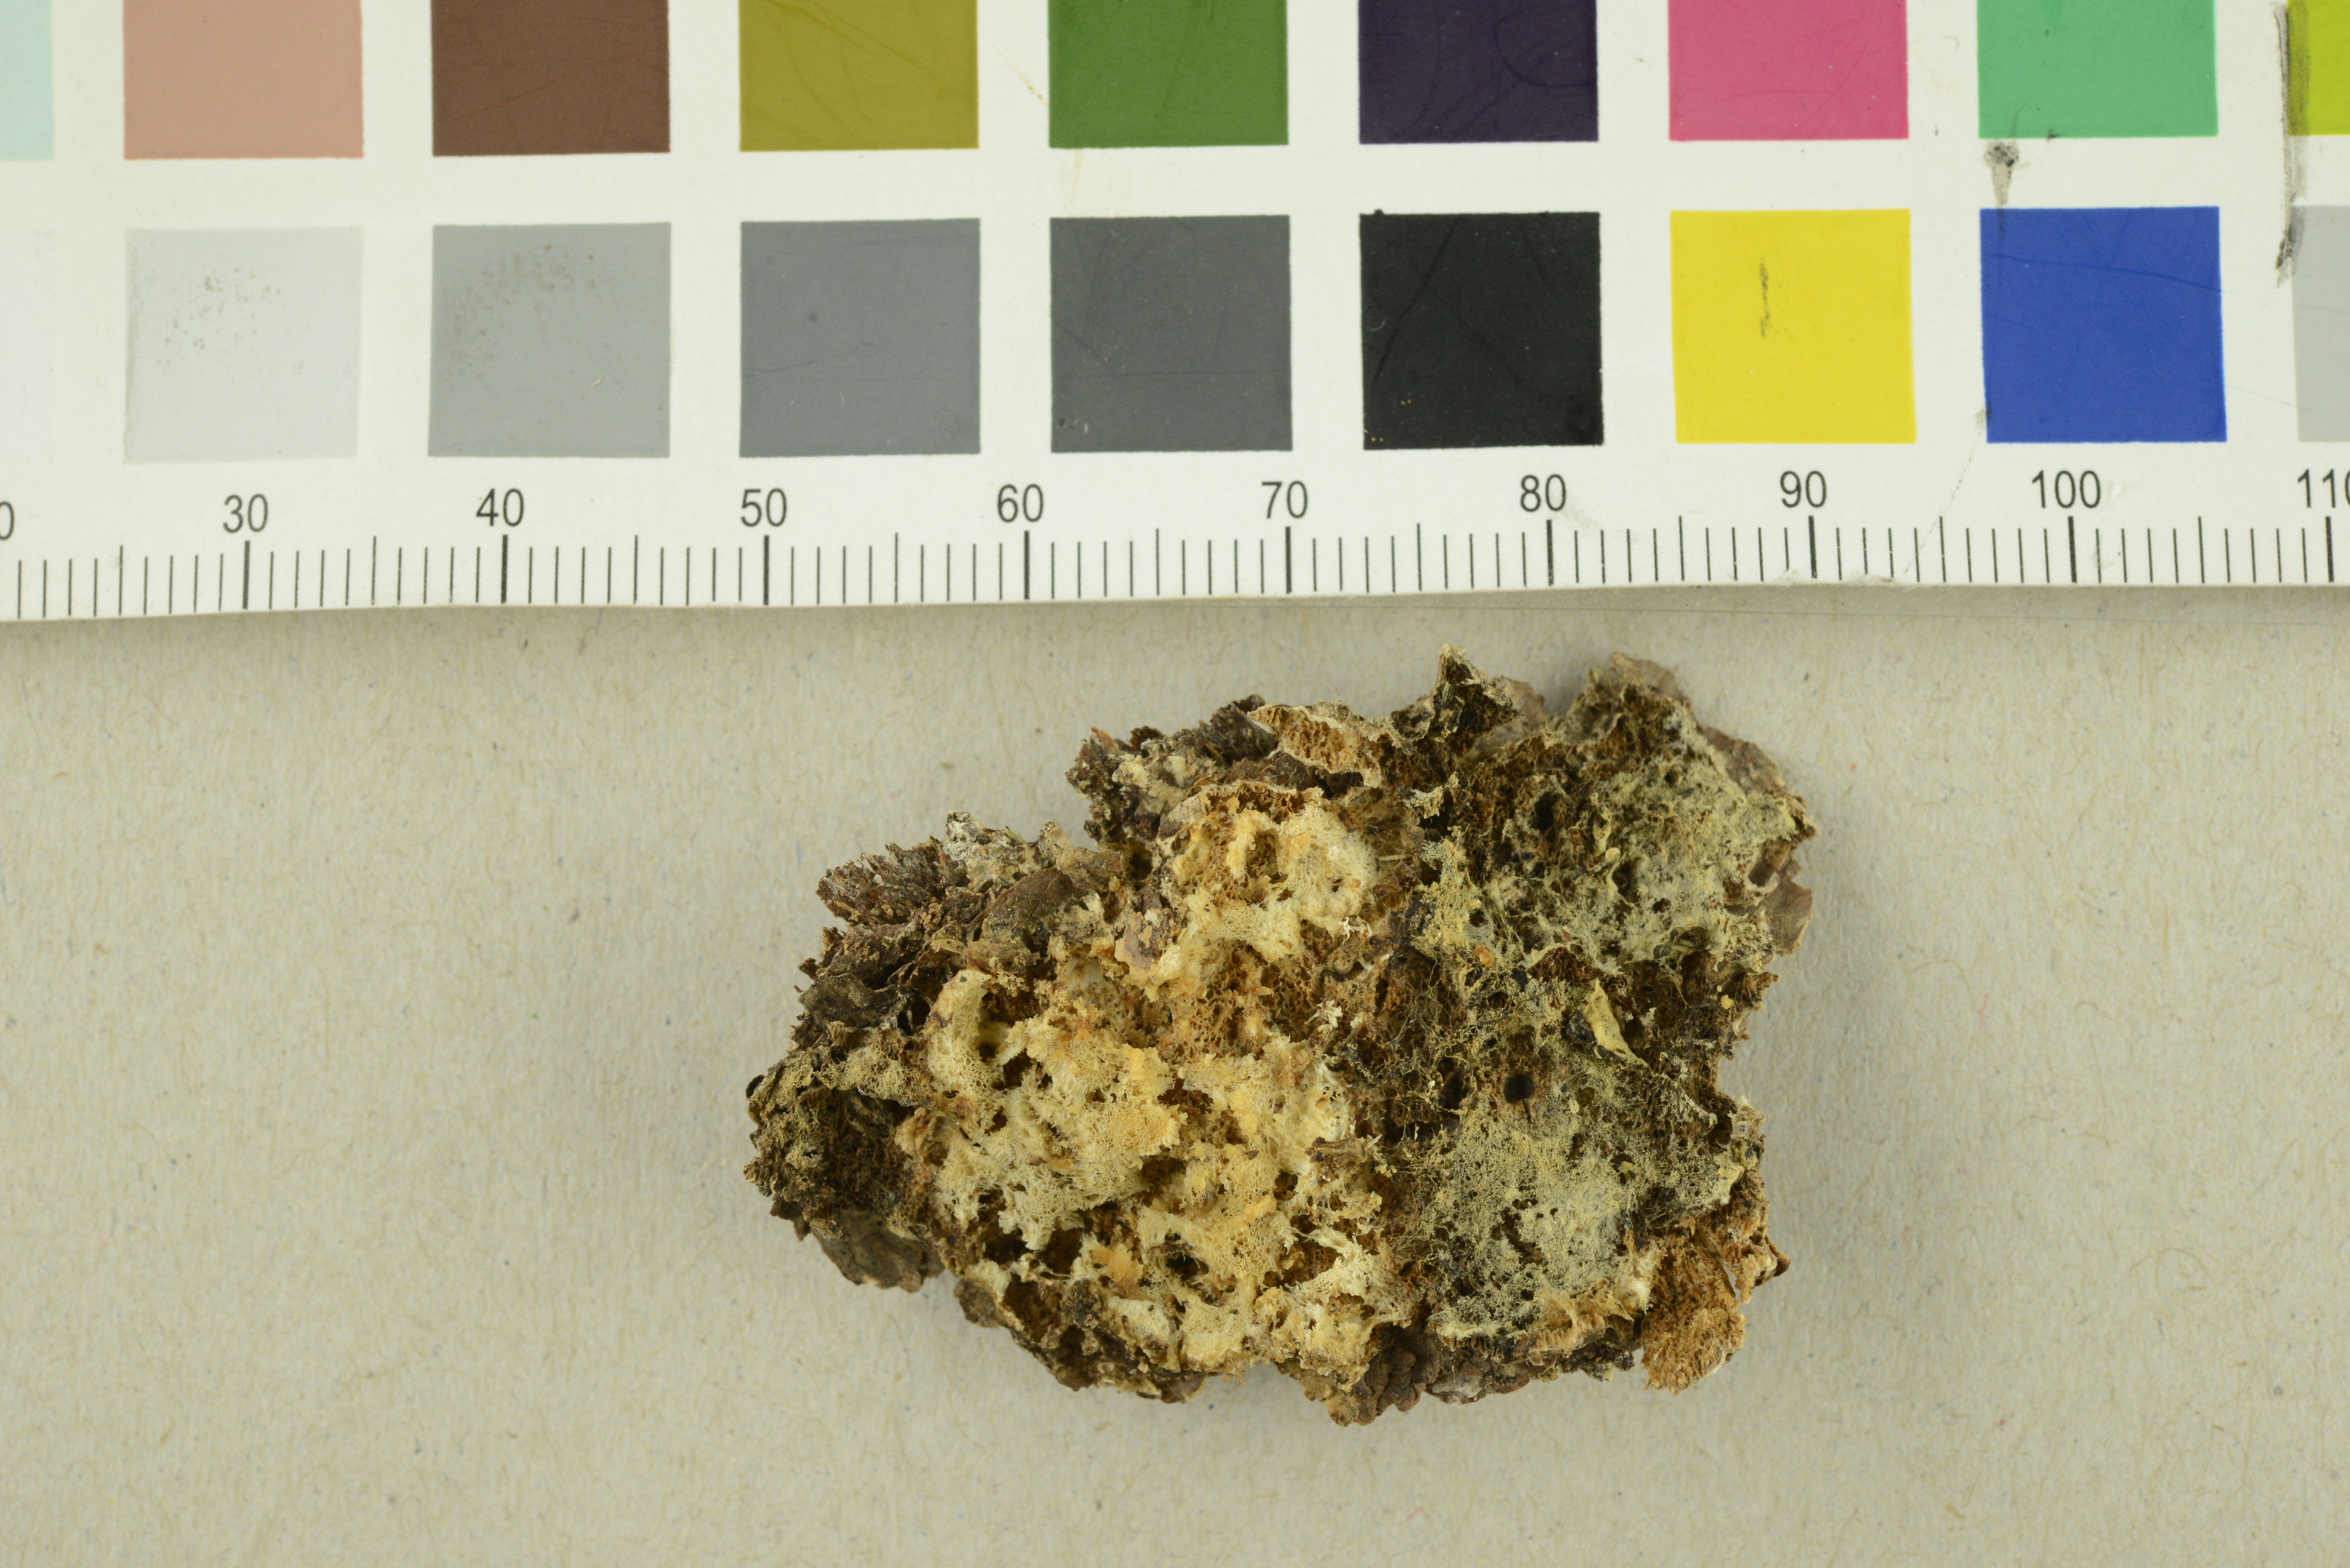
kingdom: Fungi
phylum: Basidiomycota
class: Agaricomycetes
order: Polyporales
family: Incrustoporiaceae
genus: Skeletocutis
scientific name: Skeletocutis kuehneri
